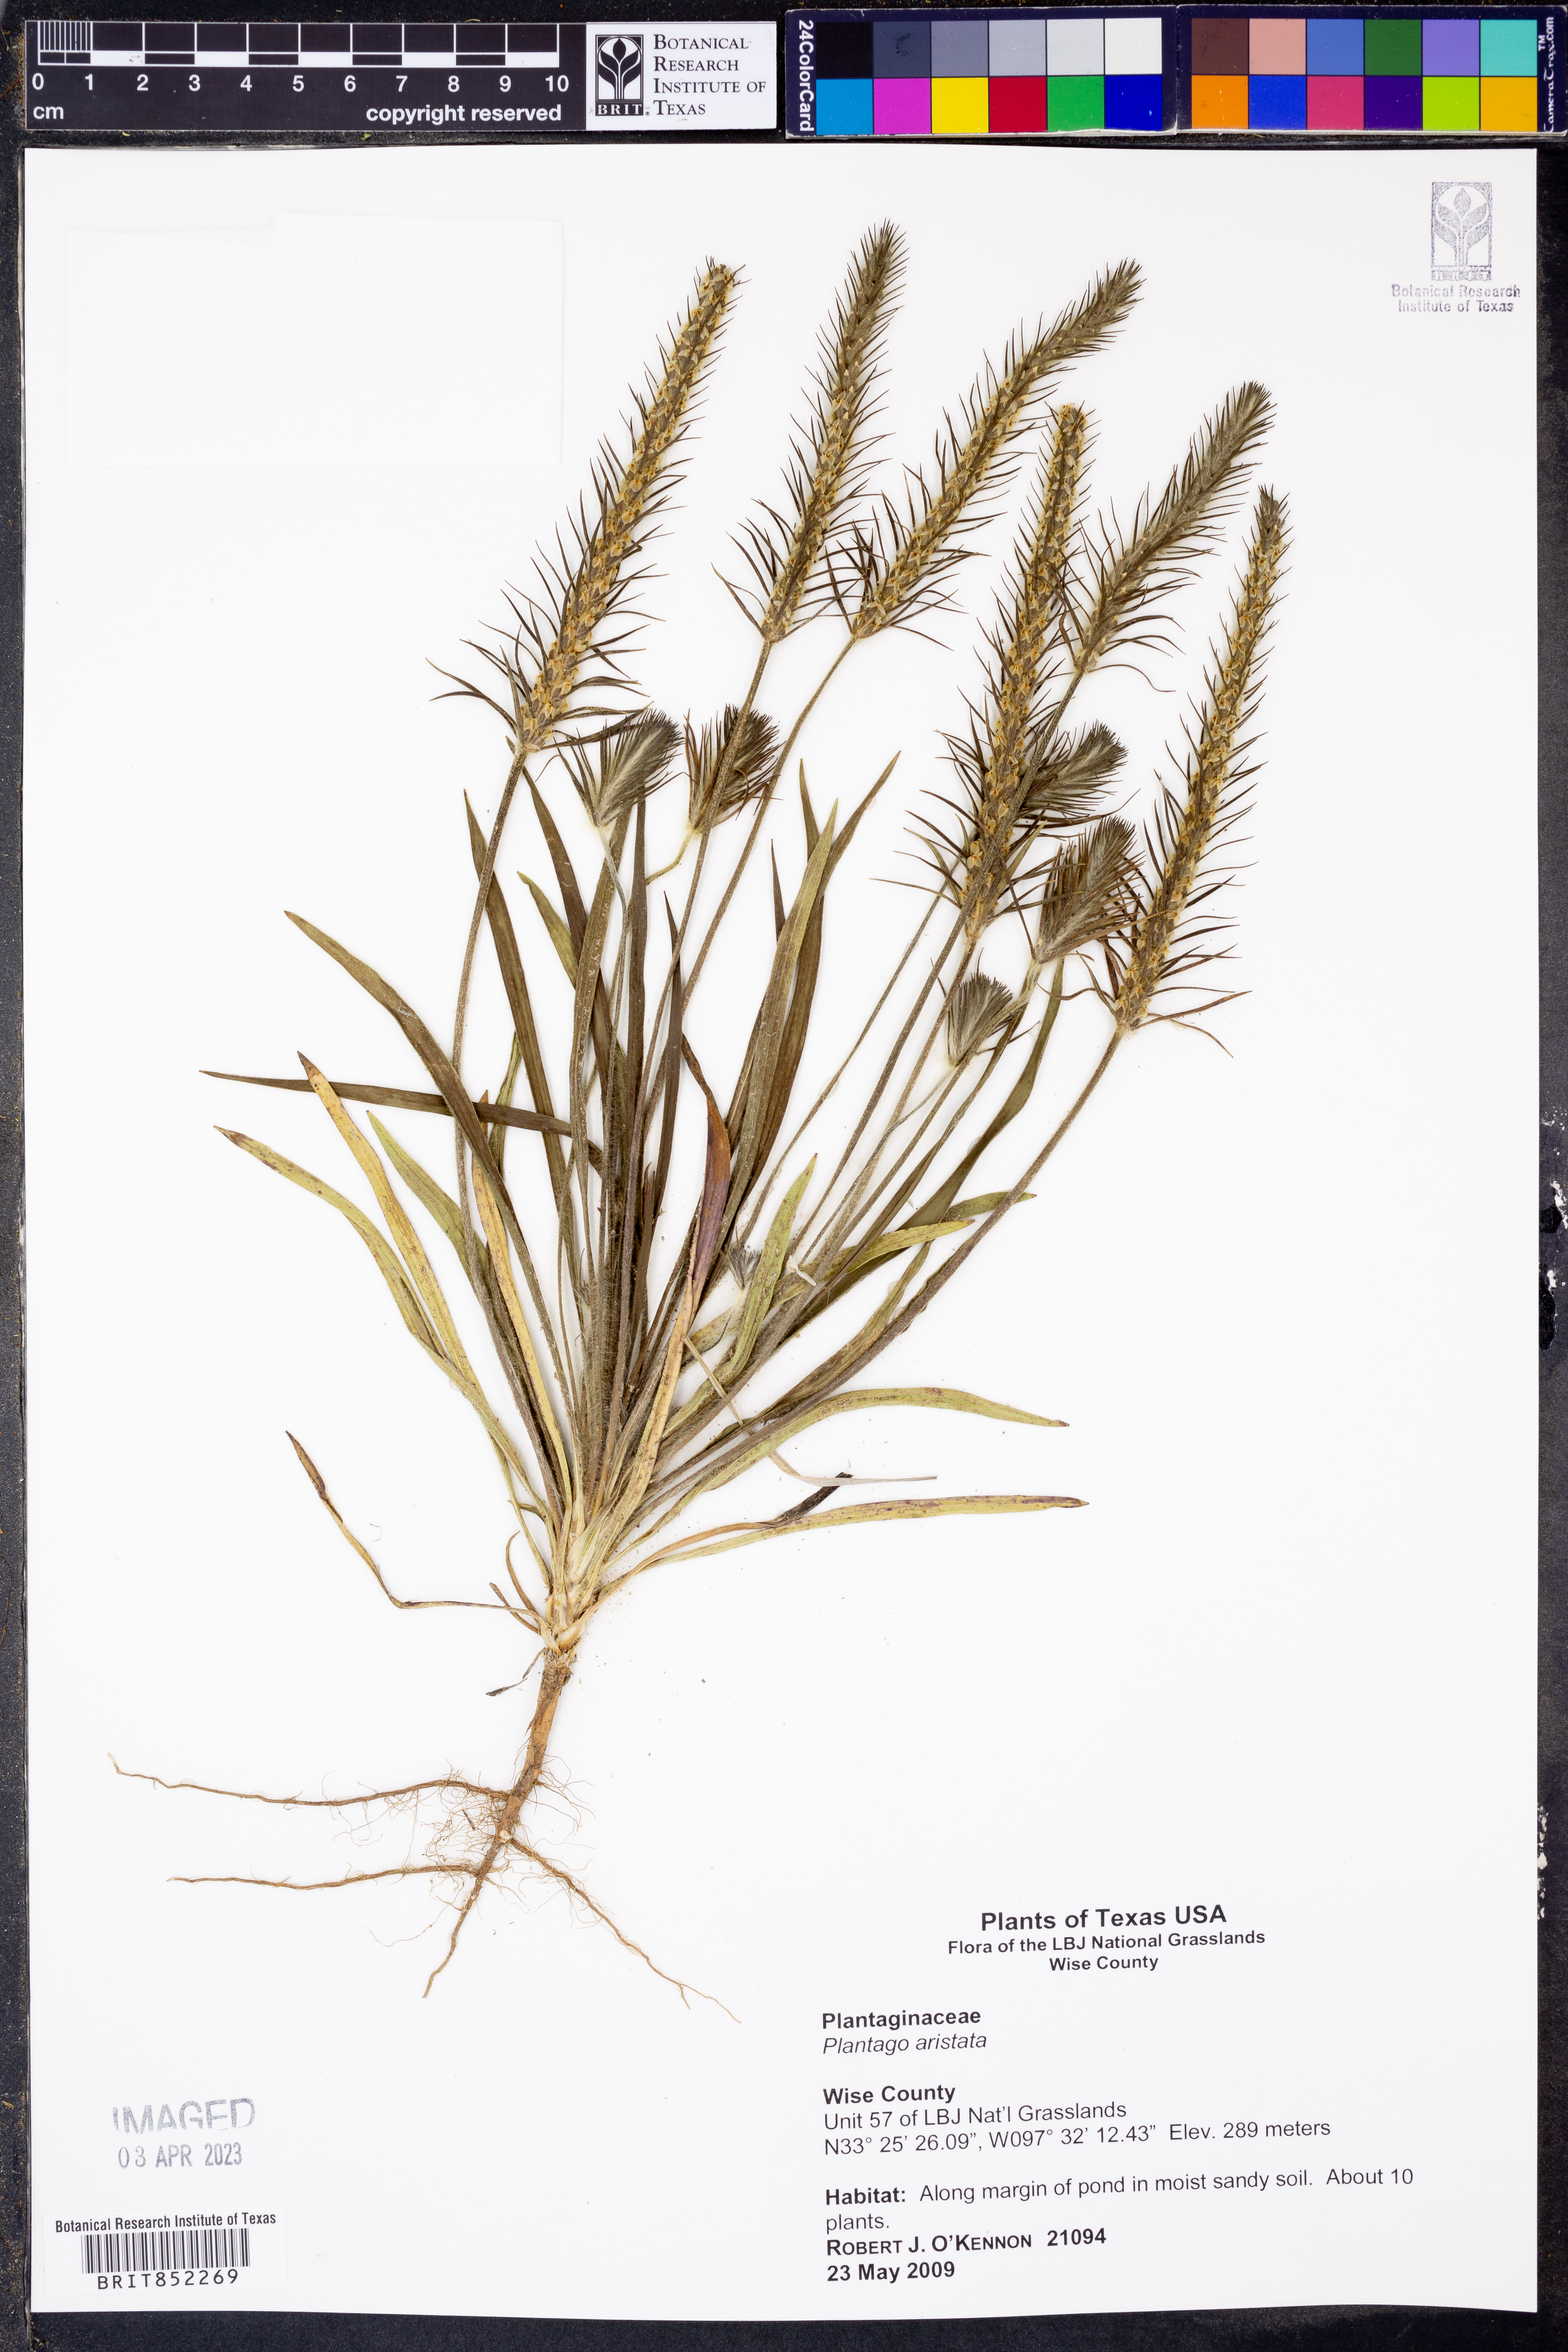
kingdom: Plantae
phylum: Tracheophyta
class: Magnoliopsida
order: Lamiales
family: Plantaginaceae
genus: Plantago
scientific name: Plantago aristata
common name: Bracted plantain
